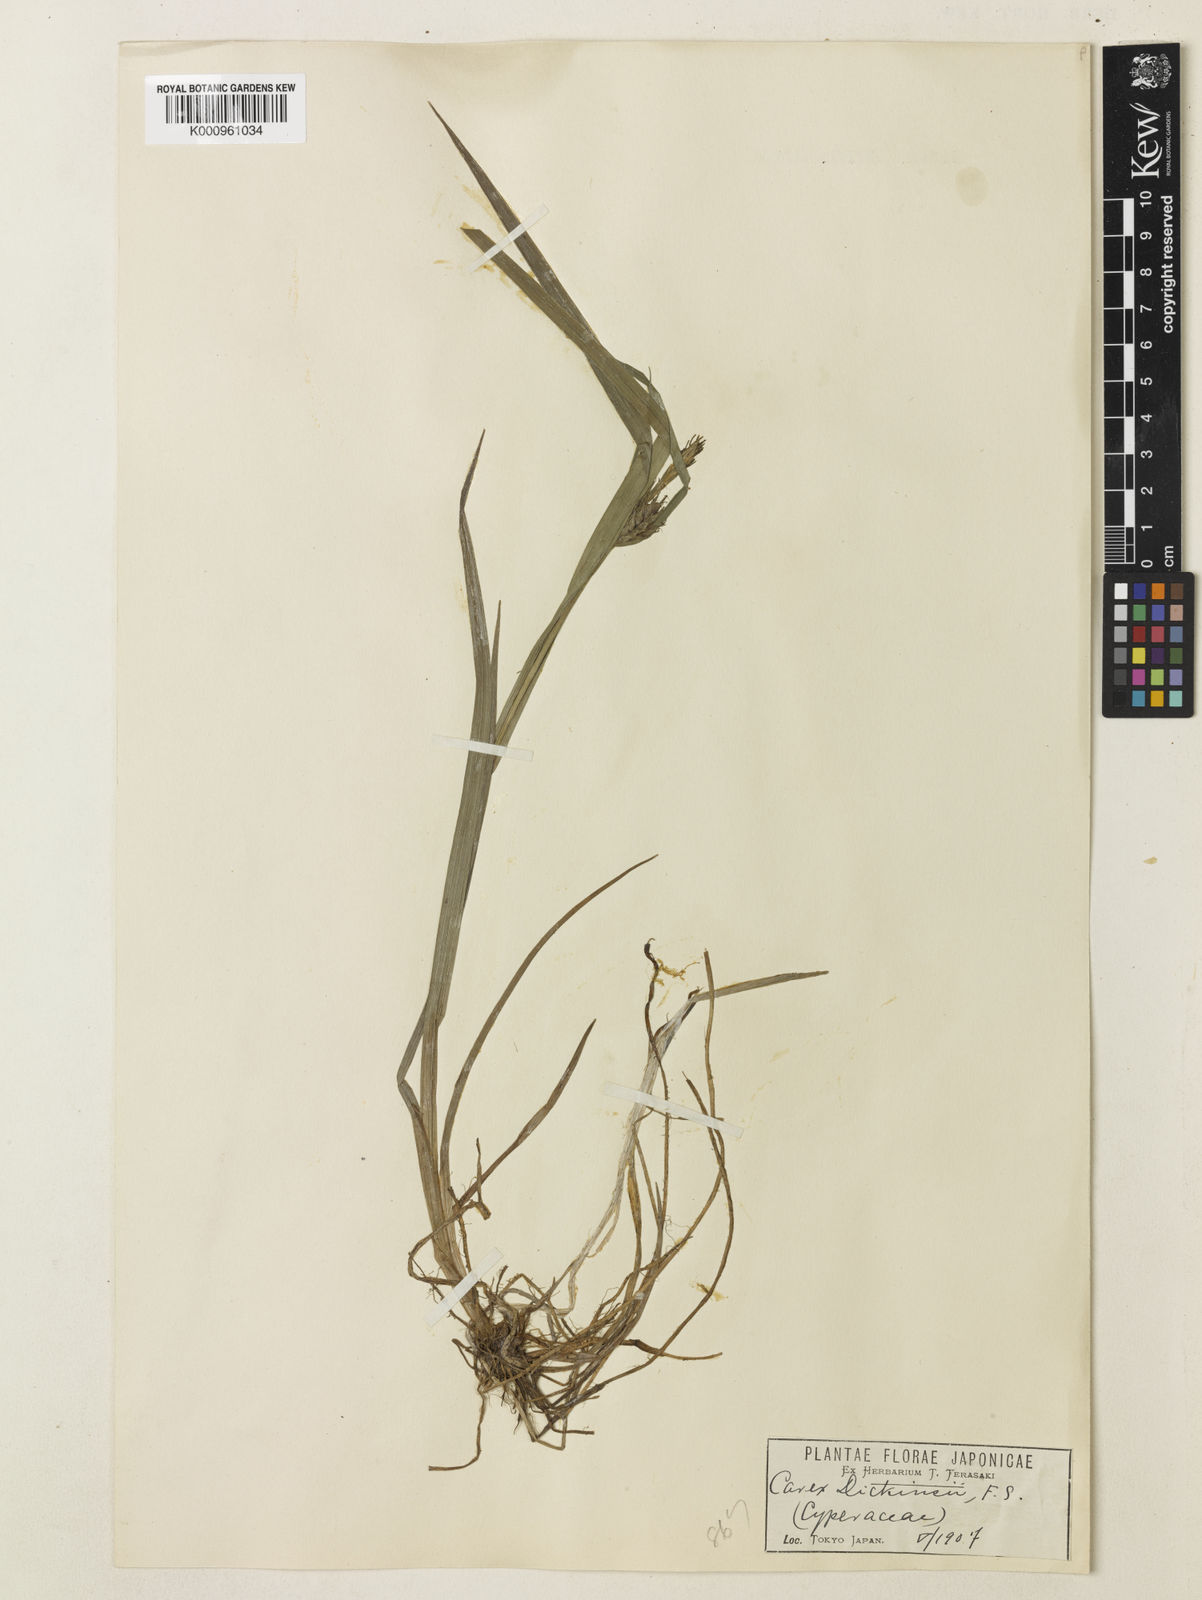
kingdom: Plantae
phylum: Tracheophyta
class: Liliopsida
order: Poales
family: Cyperaceae
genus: Carex
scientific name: Carex dickinsii
